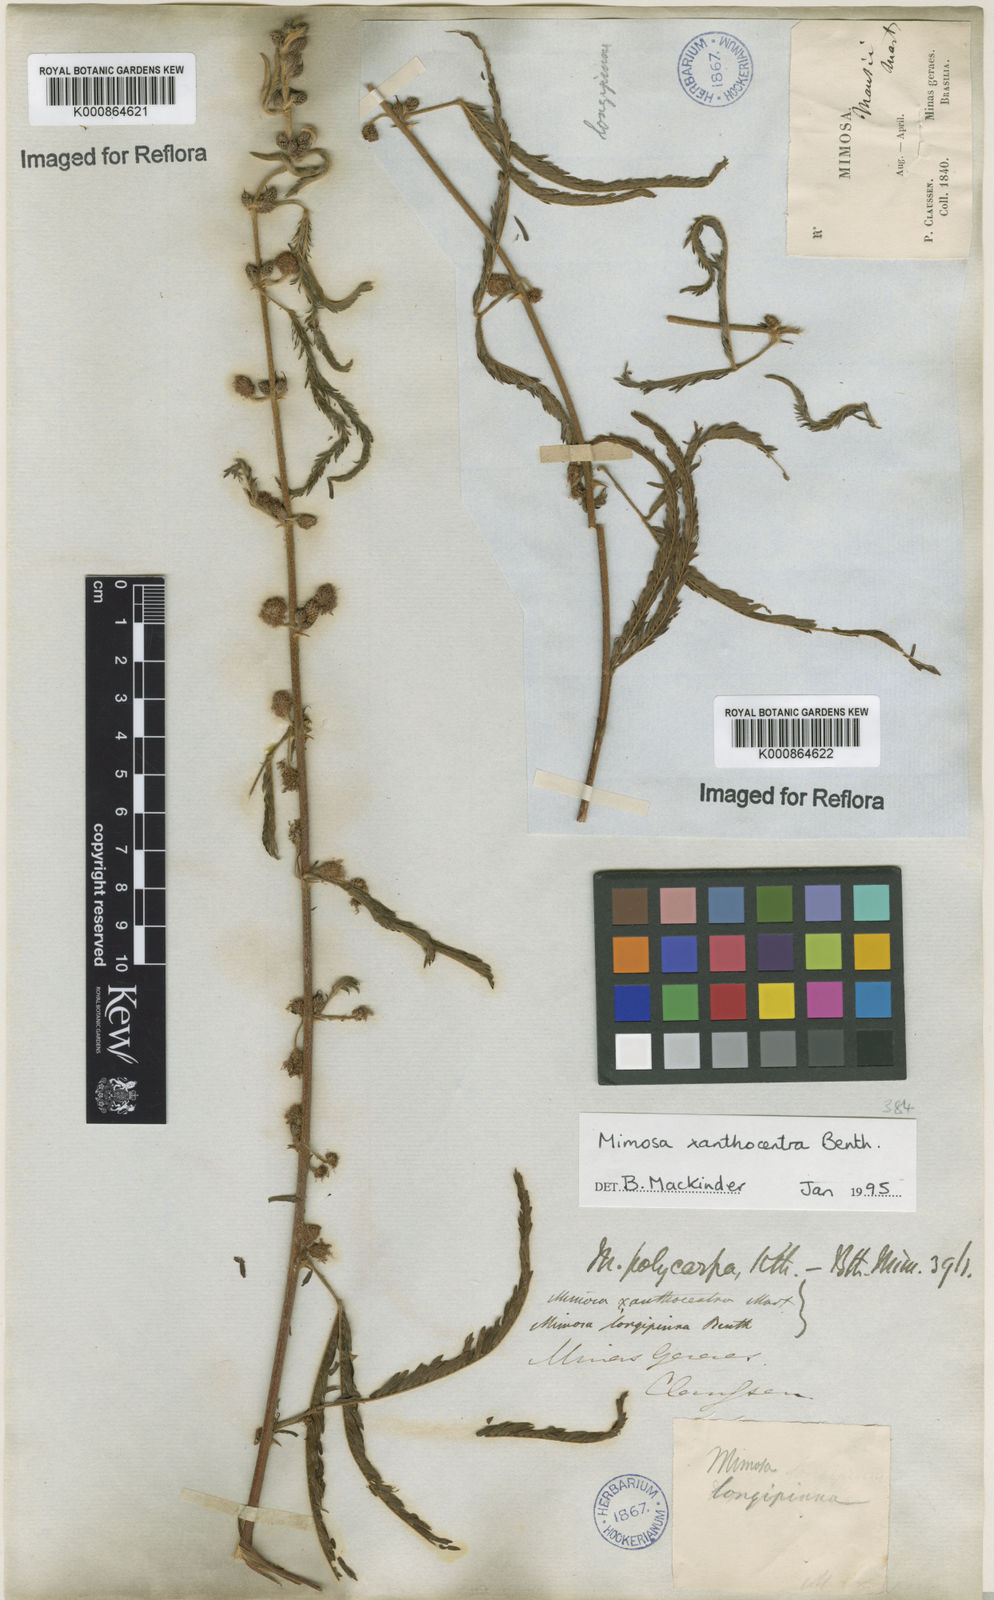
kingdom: Plantae
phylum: Tracheophyta
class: Magnoliopsida
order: Fabales
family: Fabaceae
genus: Mimosa
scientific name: Mimosa
